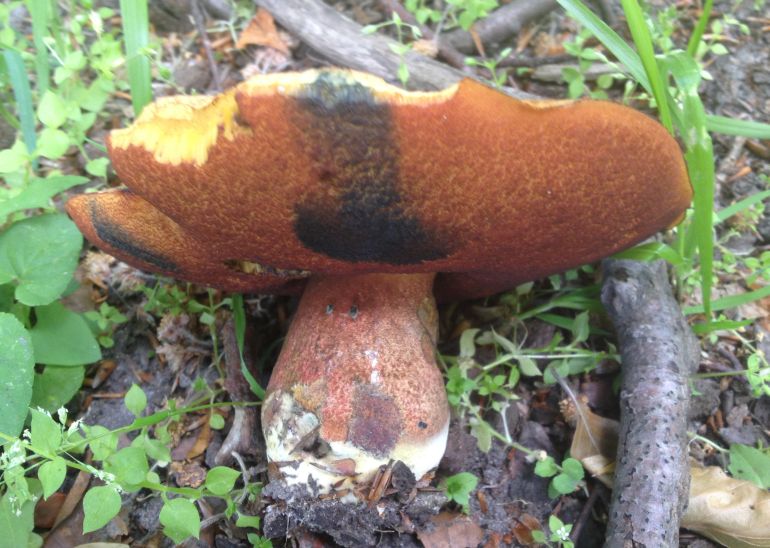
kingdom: Fungi
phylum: Basidiomycota
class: Agaricomycetes
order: Boletales
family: Boletaceae
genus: Neoboletus
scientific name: Neoboletus erythropus
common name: punktstokket indigorørhat
